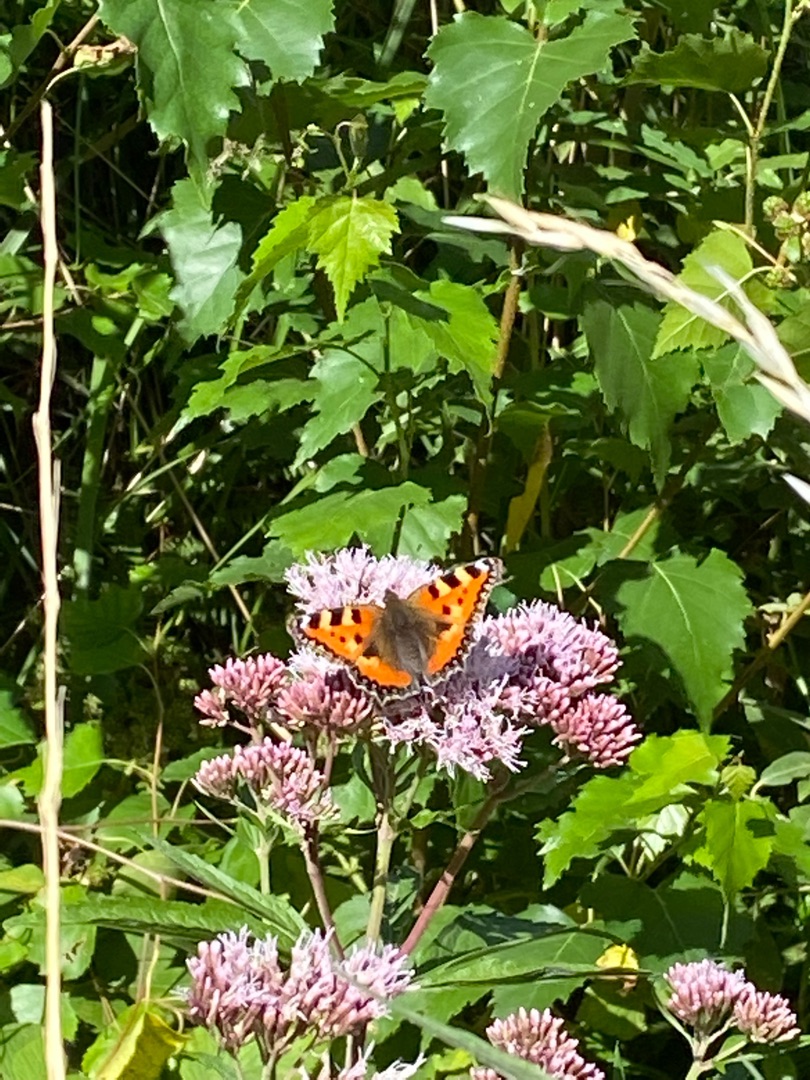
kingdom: Animalia
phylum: Arthropoda
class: Insecta
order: Lepidoptera
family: Nymphalidae
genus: Aglais
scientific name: Aglais urticae
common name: Nældens takvinge
